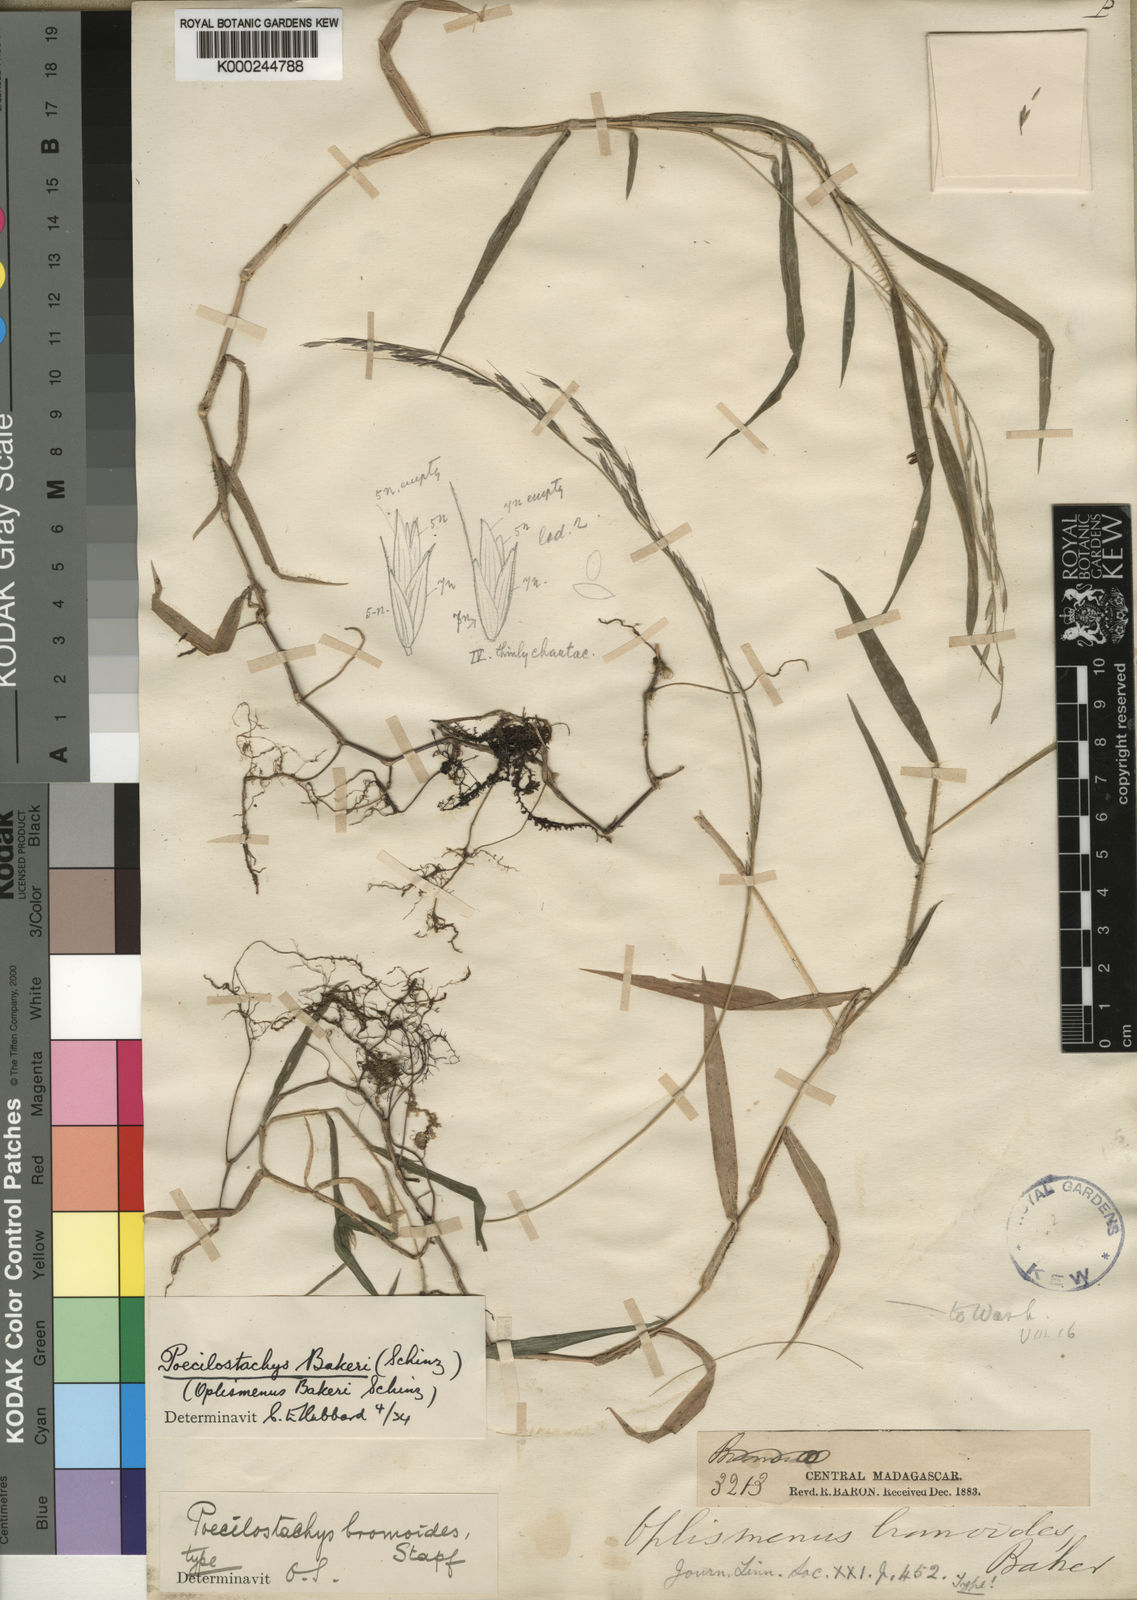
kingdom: Plantae
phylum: Tracheophyta
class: Liliopsida
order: Poales
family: Poaceae
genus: Poecilostachys
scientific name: Poecilostachys bakeri
